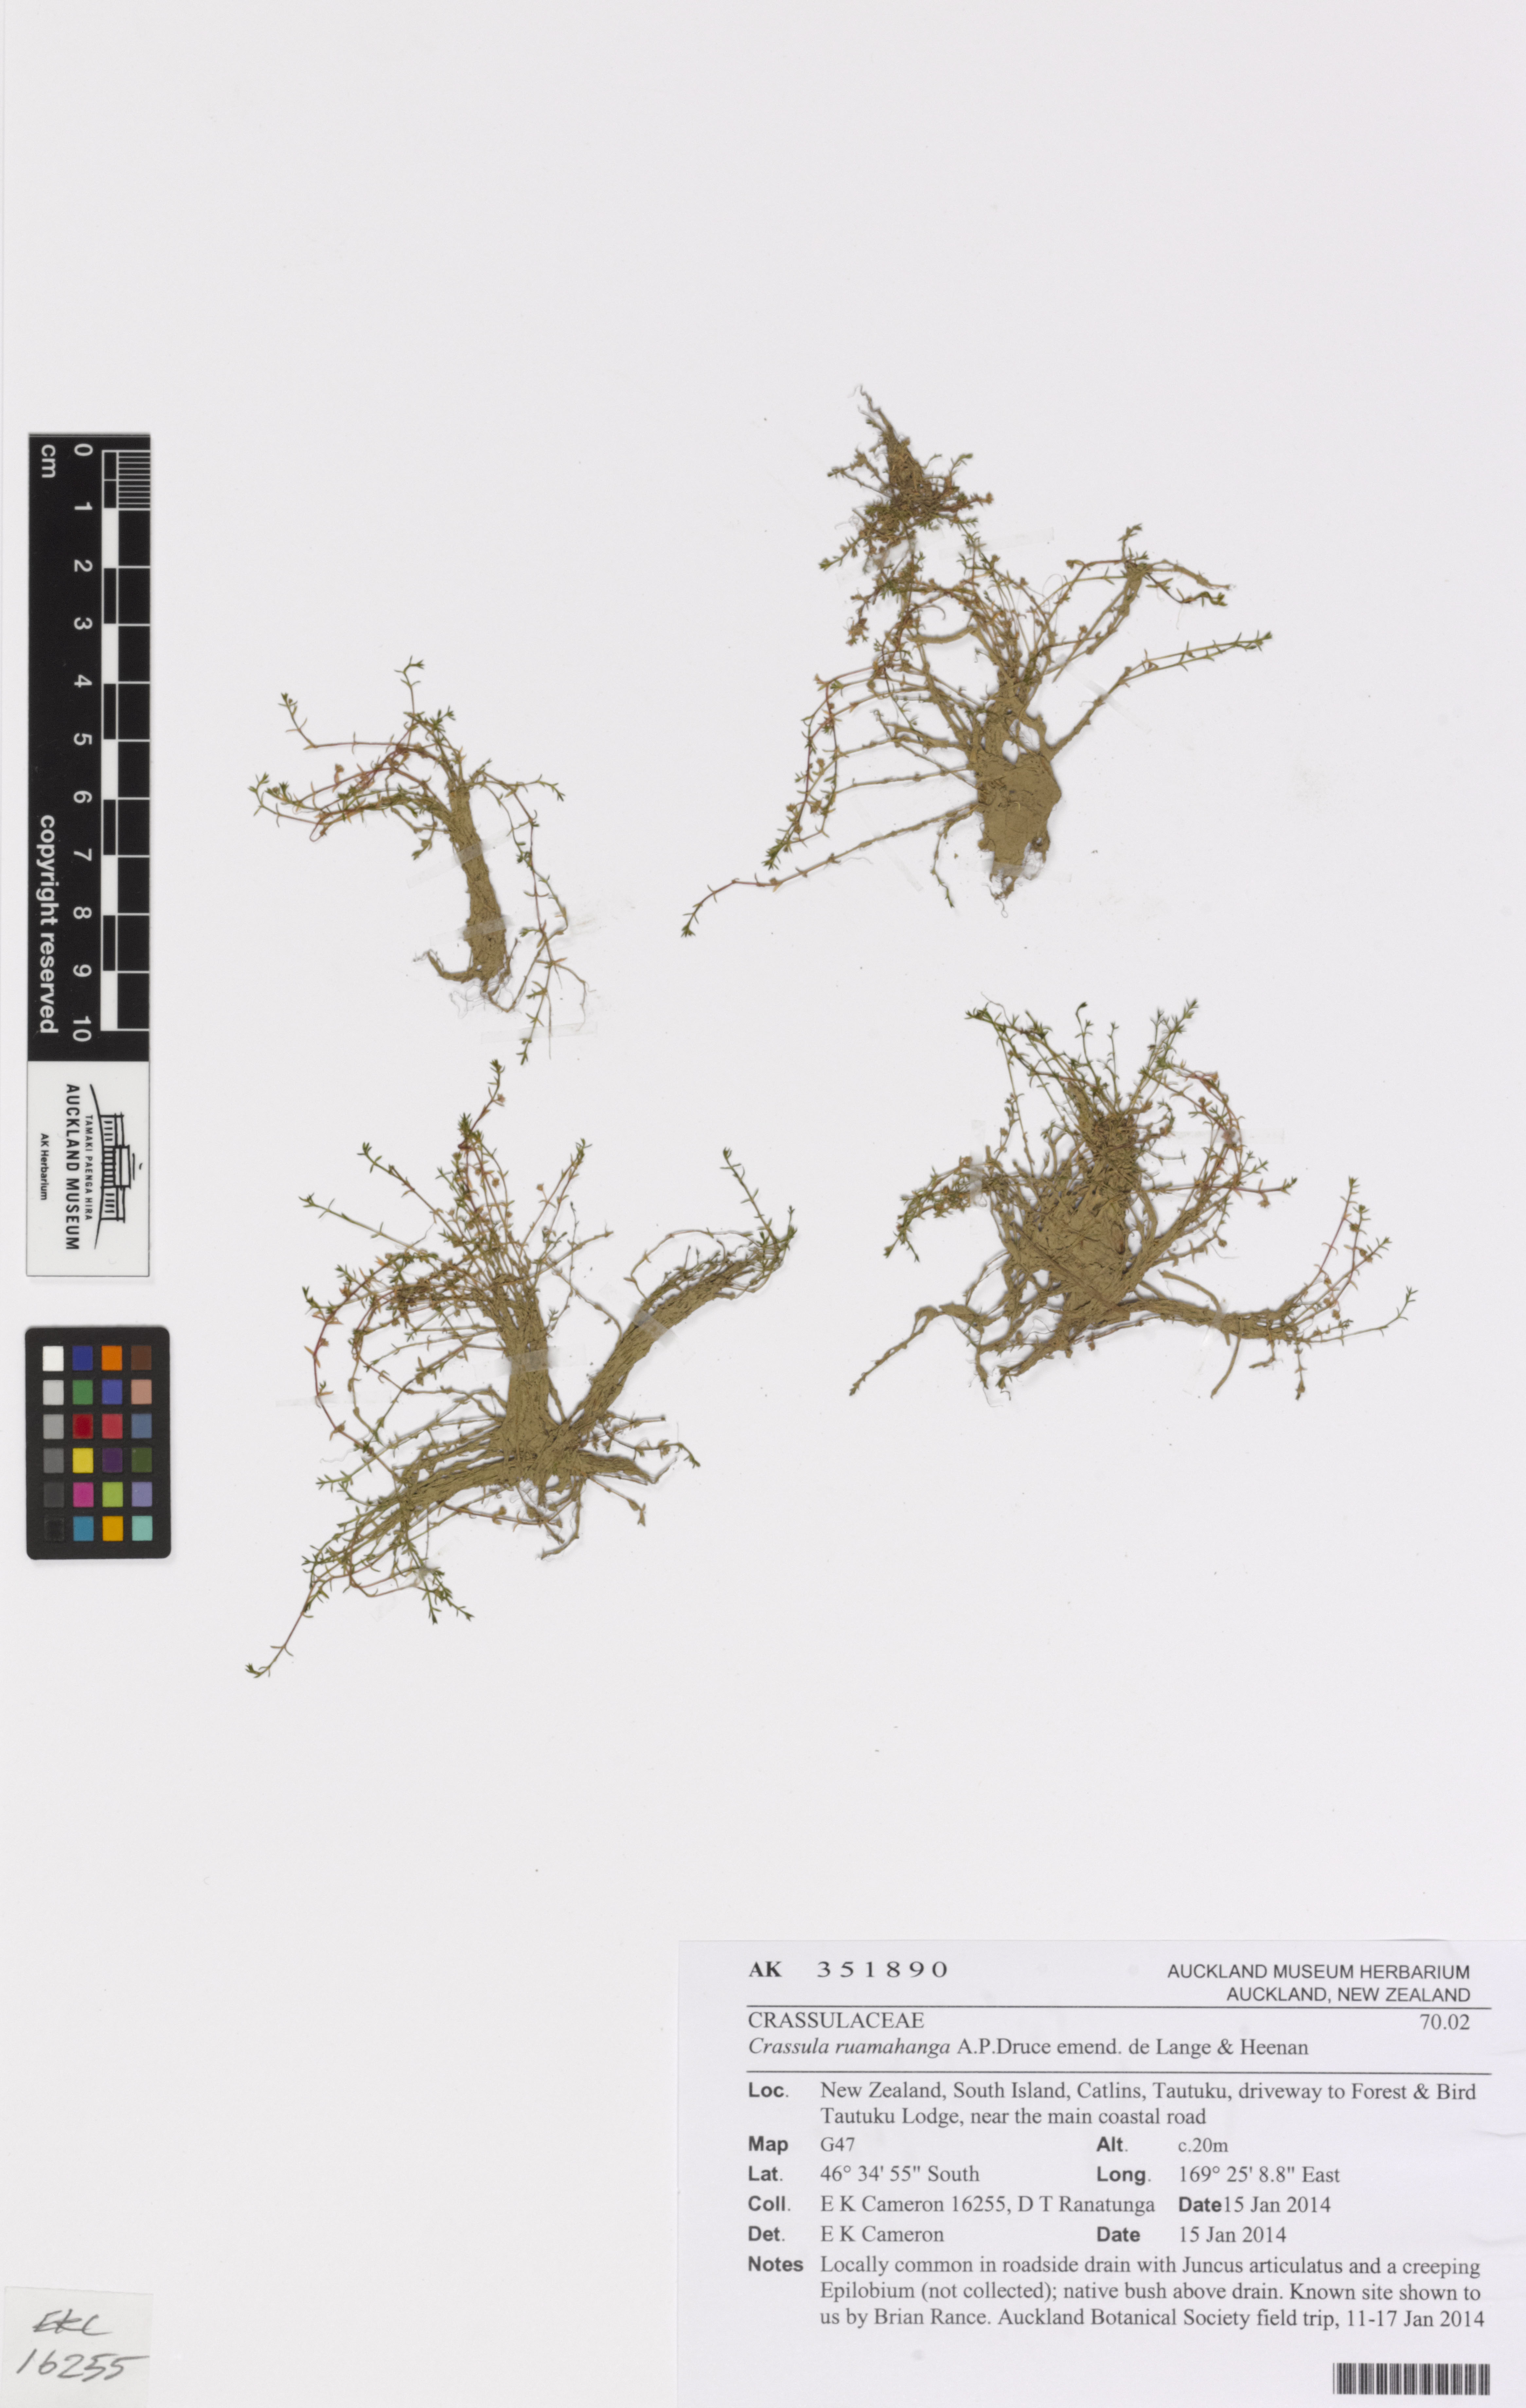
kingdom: Plantae
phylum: Tracheophyta
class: Magnoliopsida
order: Saxifragales
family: Crassulaceae
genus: Crassula
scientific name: Crassula ruamahanga
